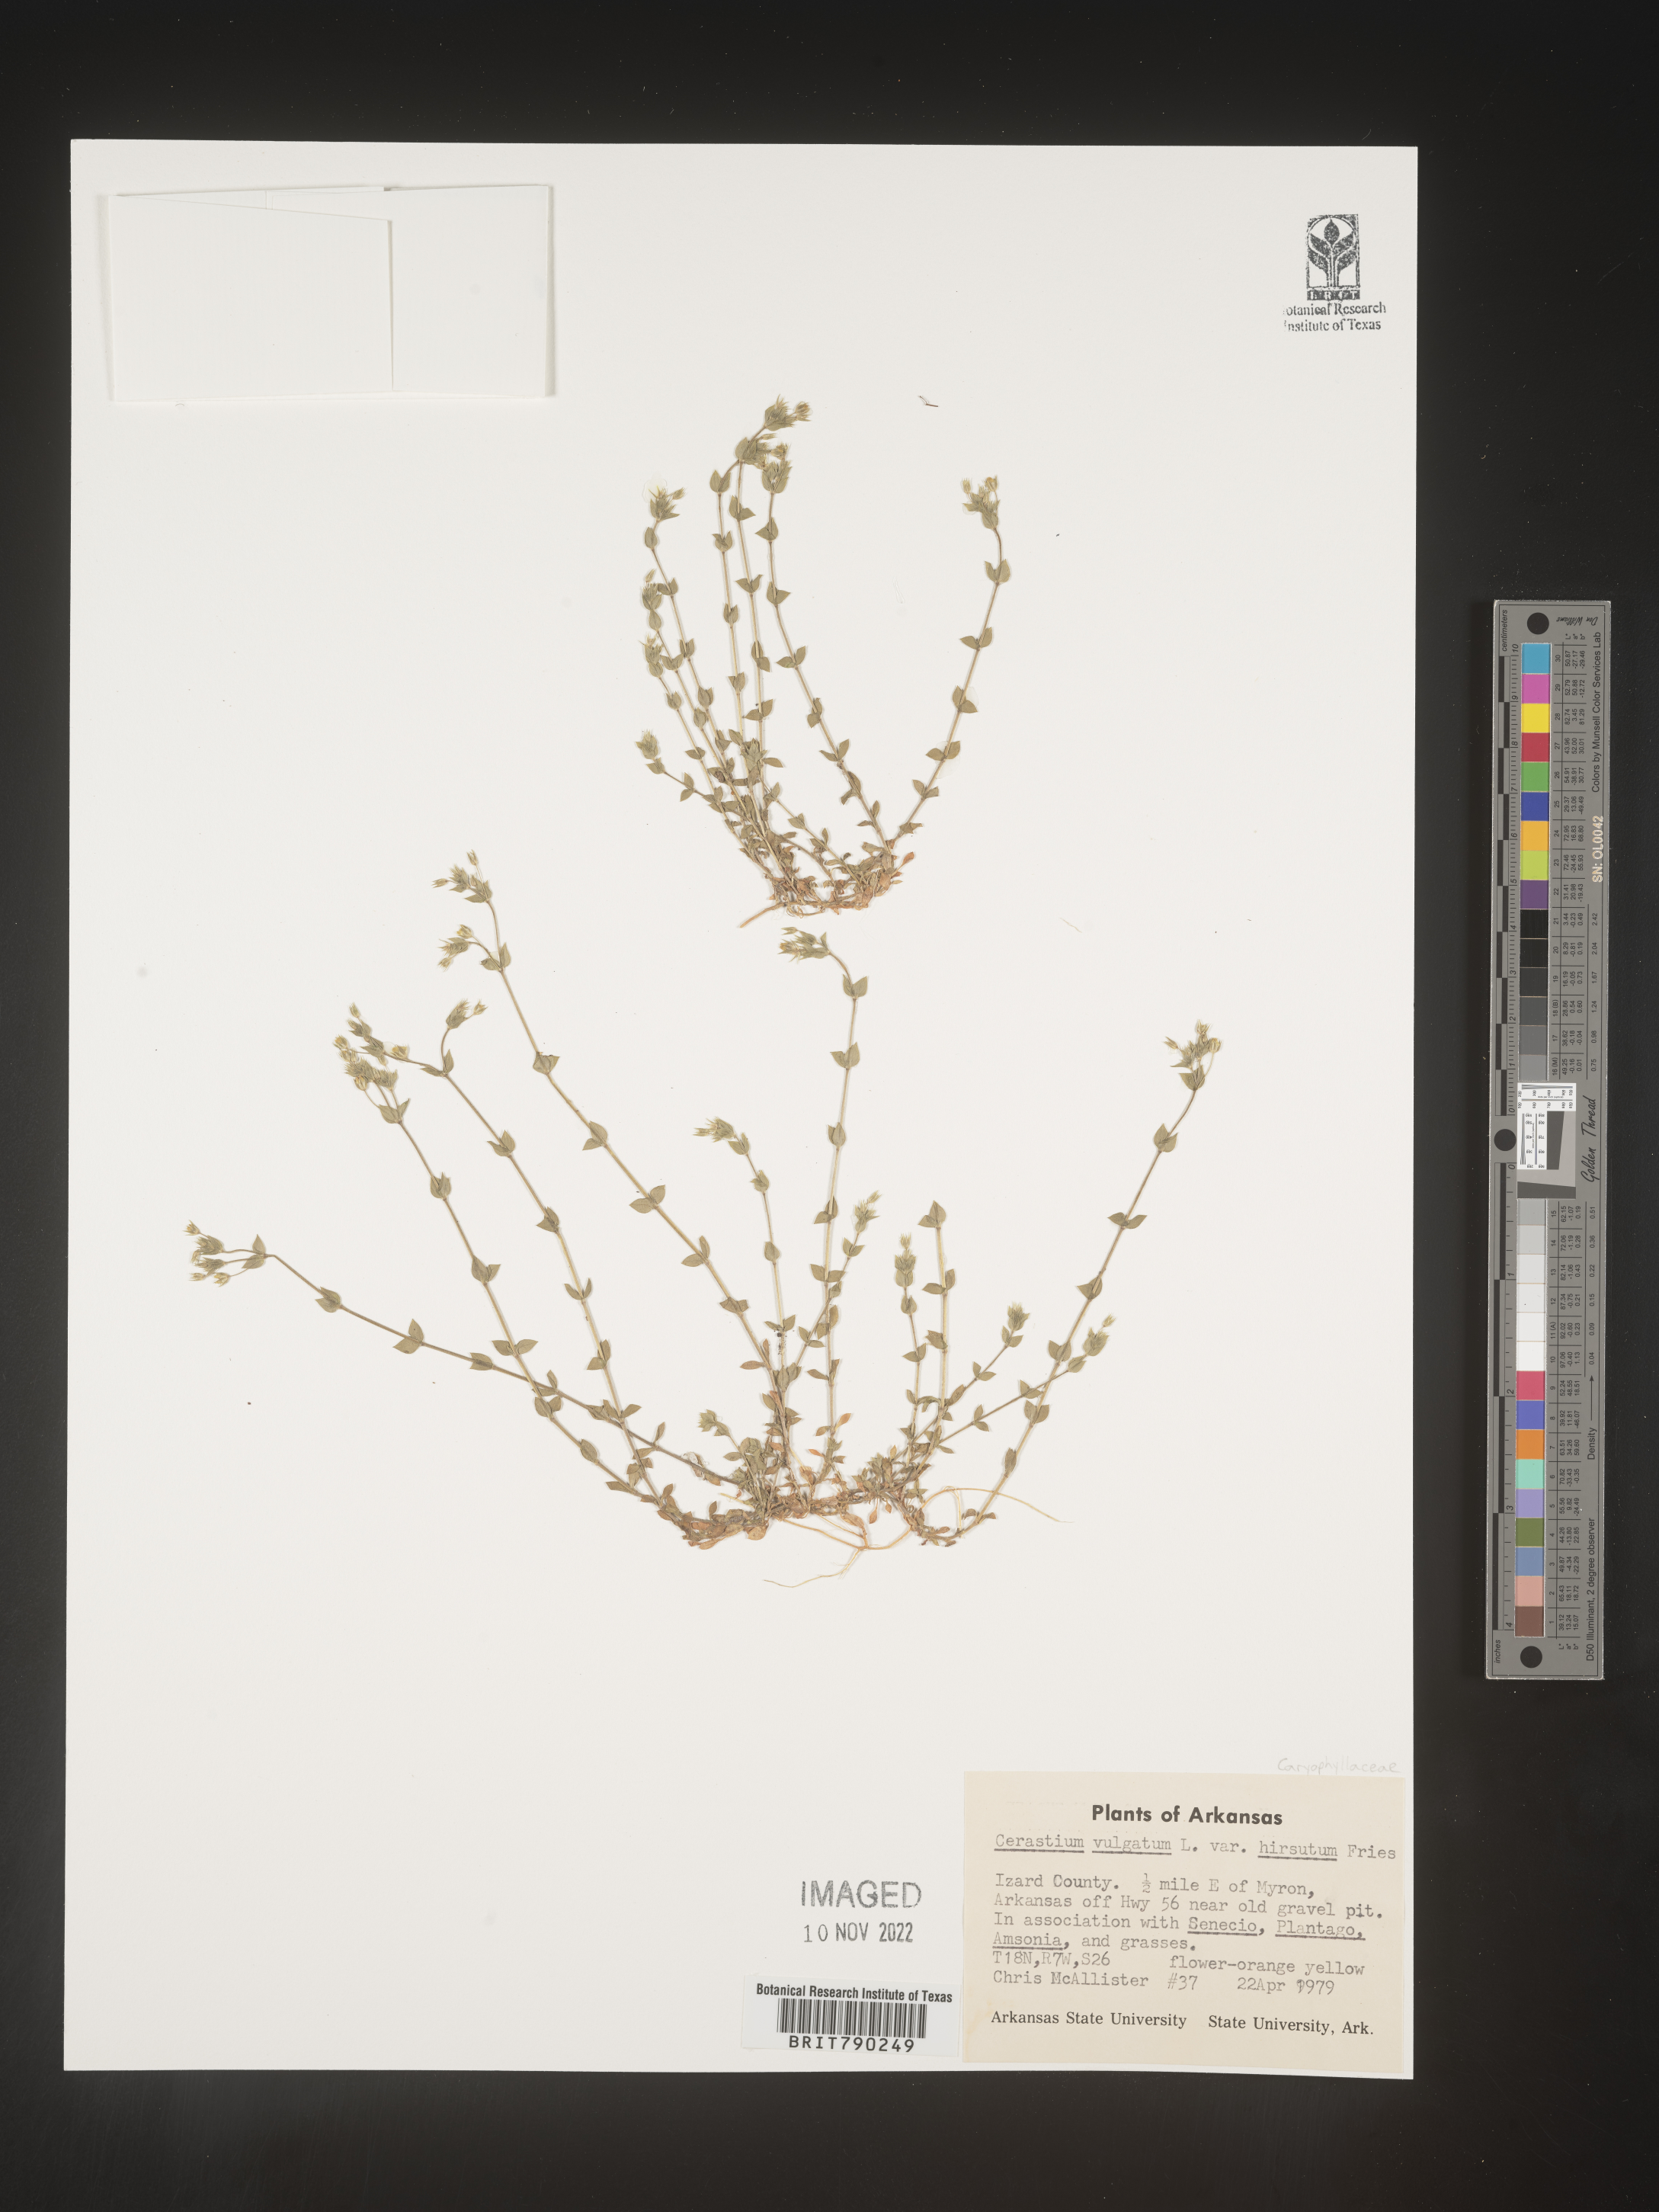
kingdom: Plantae
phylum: Tracheophyta
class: Magnoliopsida
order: Caryophyllales
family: Caryophyllaceae
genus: Cerastium
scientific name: Cerastium
